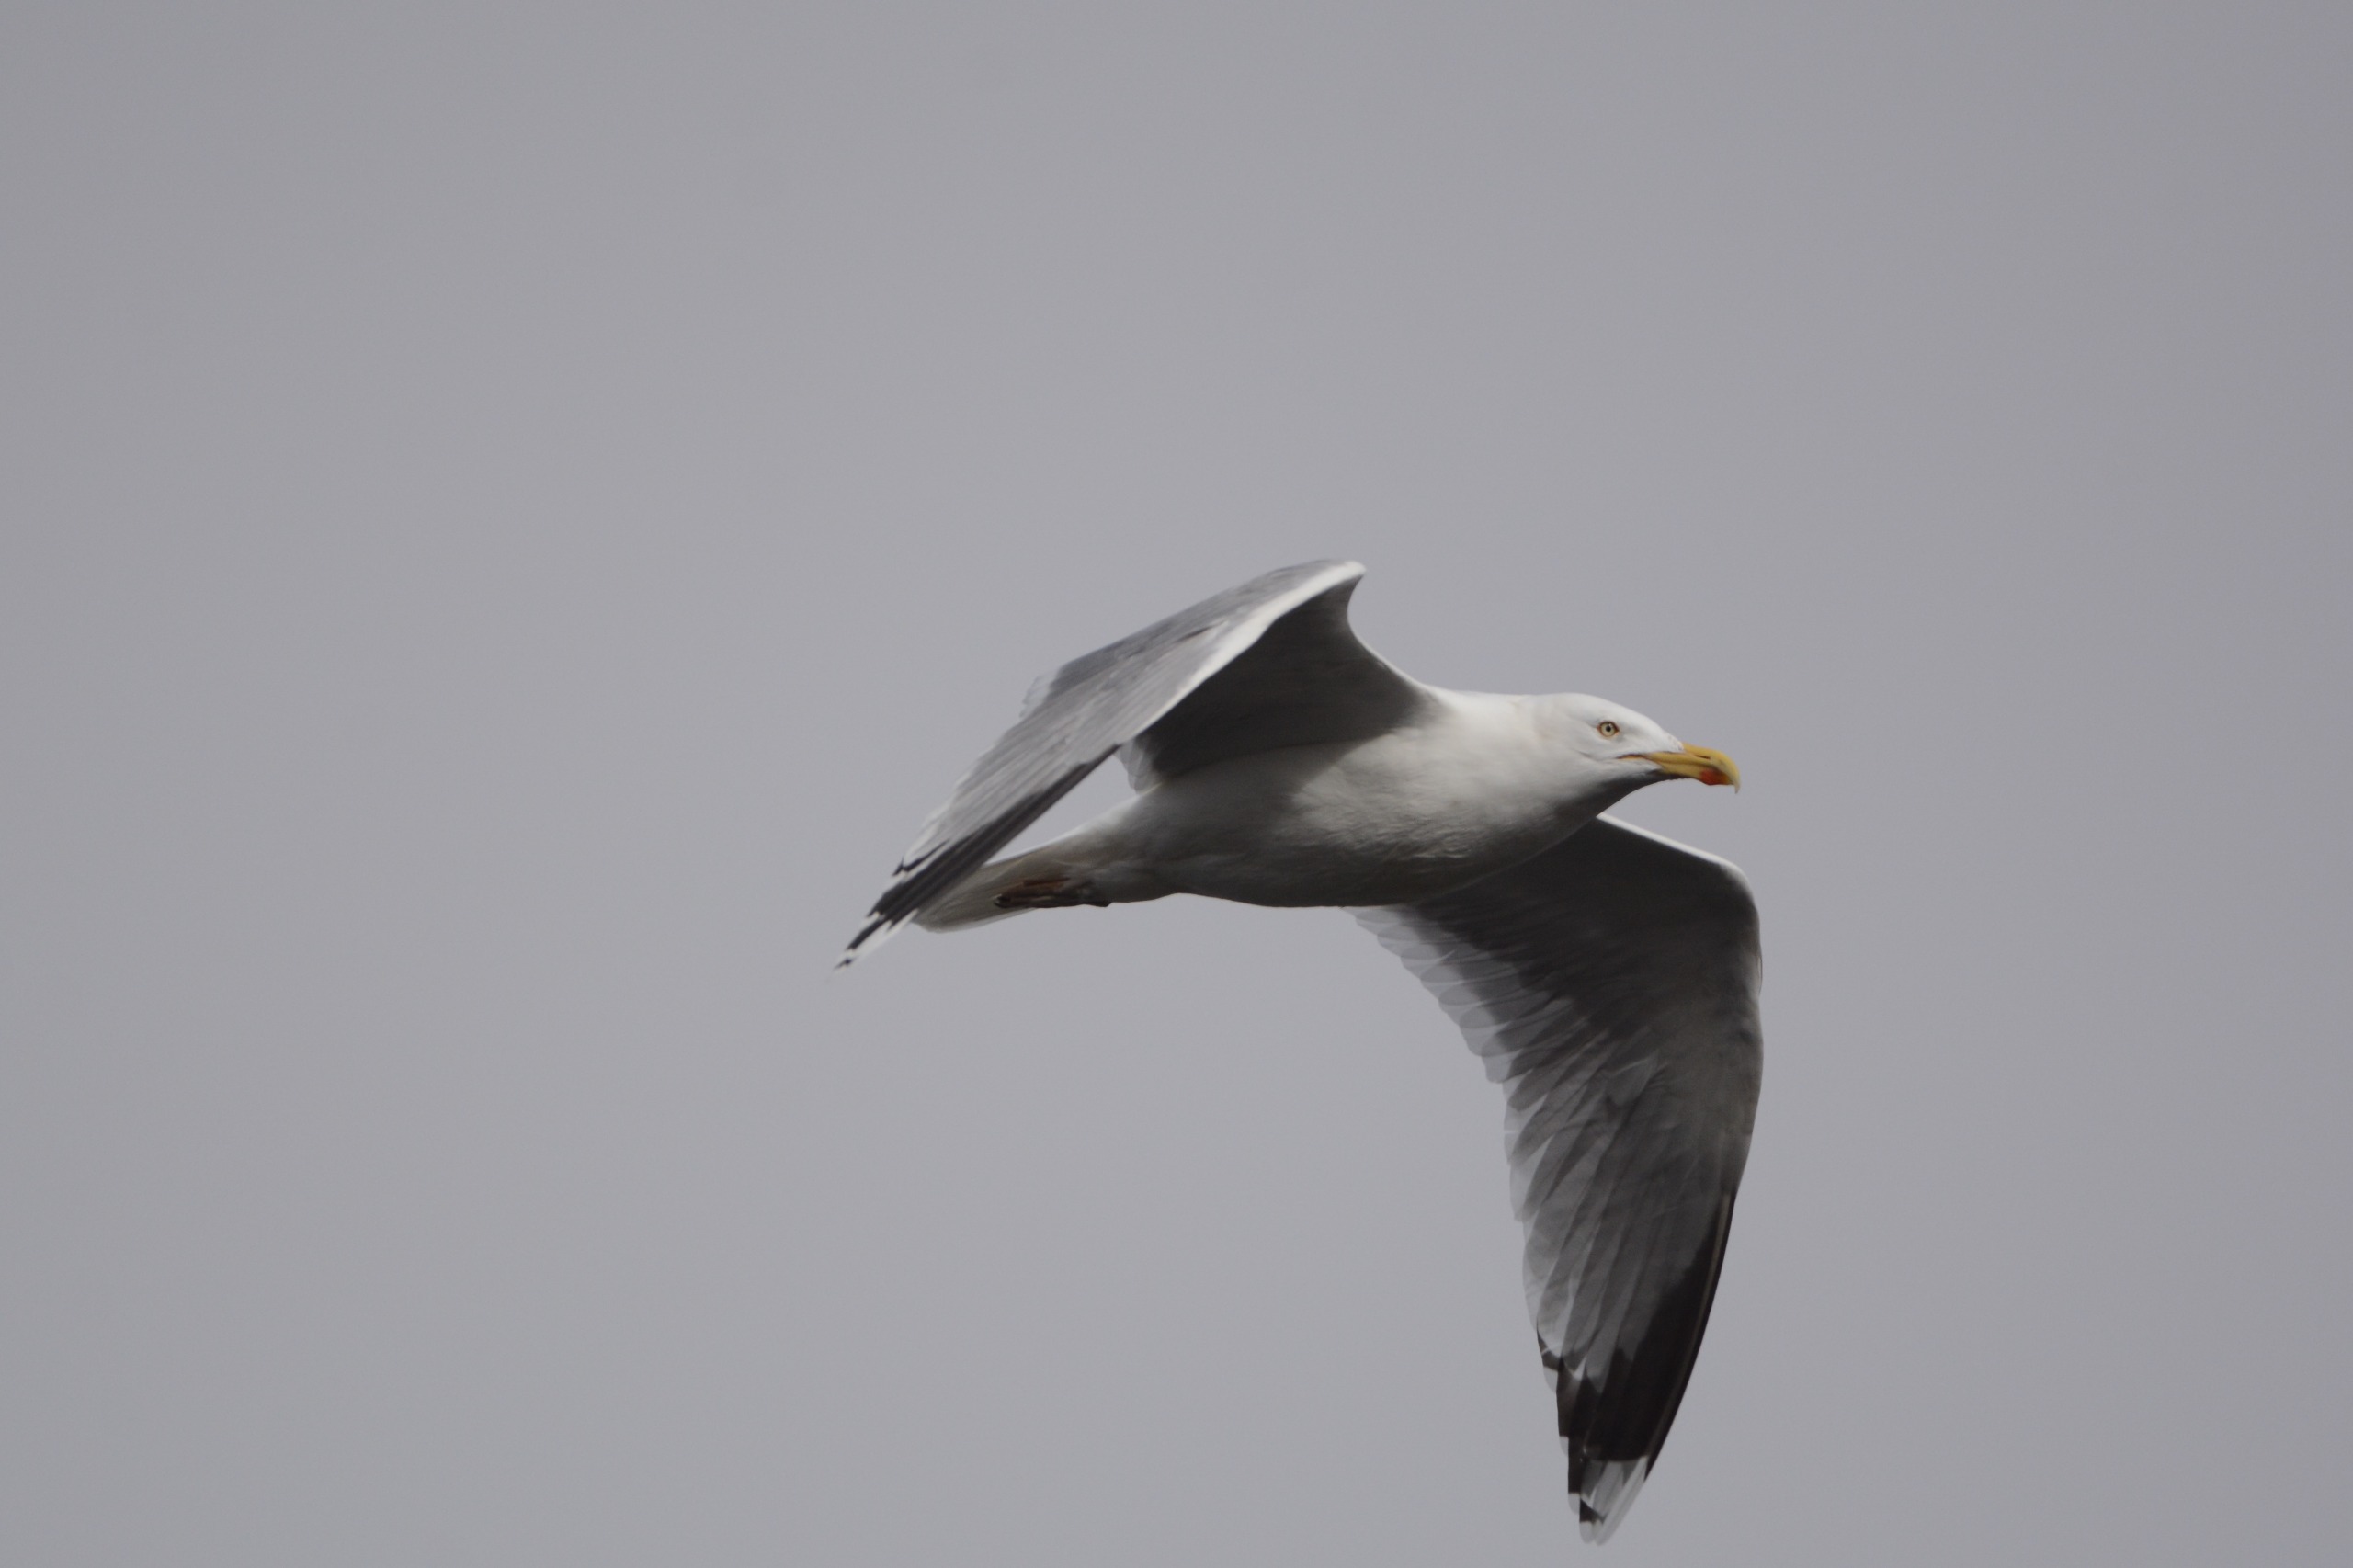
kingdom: Animalia
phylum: Chordata
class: Aves
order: Charadriiformes
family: Laridae
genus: Larus
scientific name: Larus argentatus
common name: Sølvmåge
